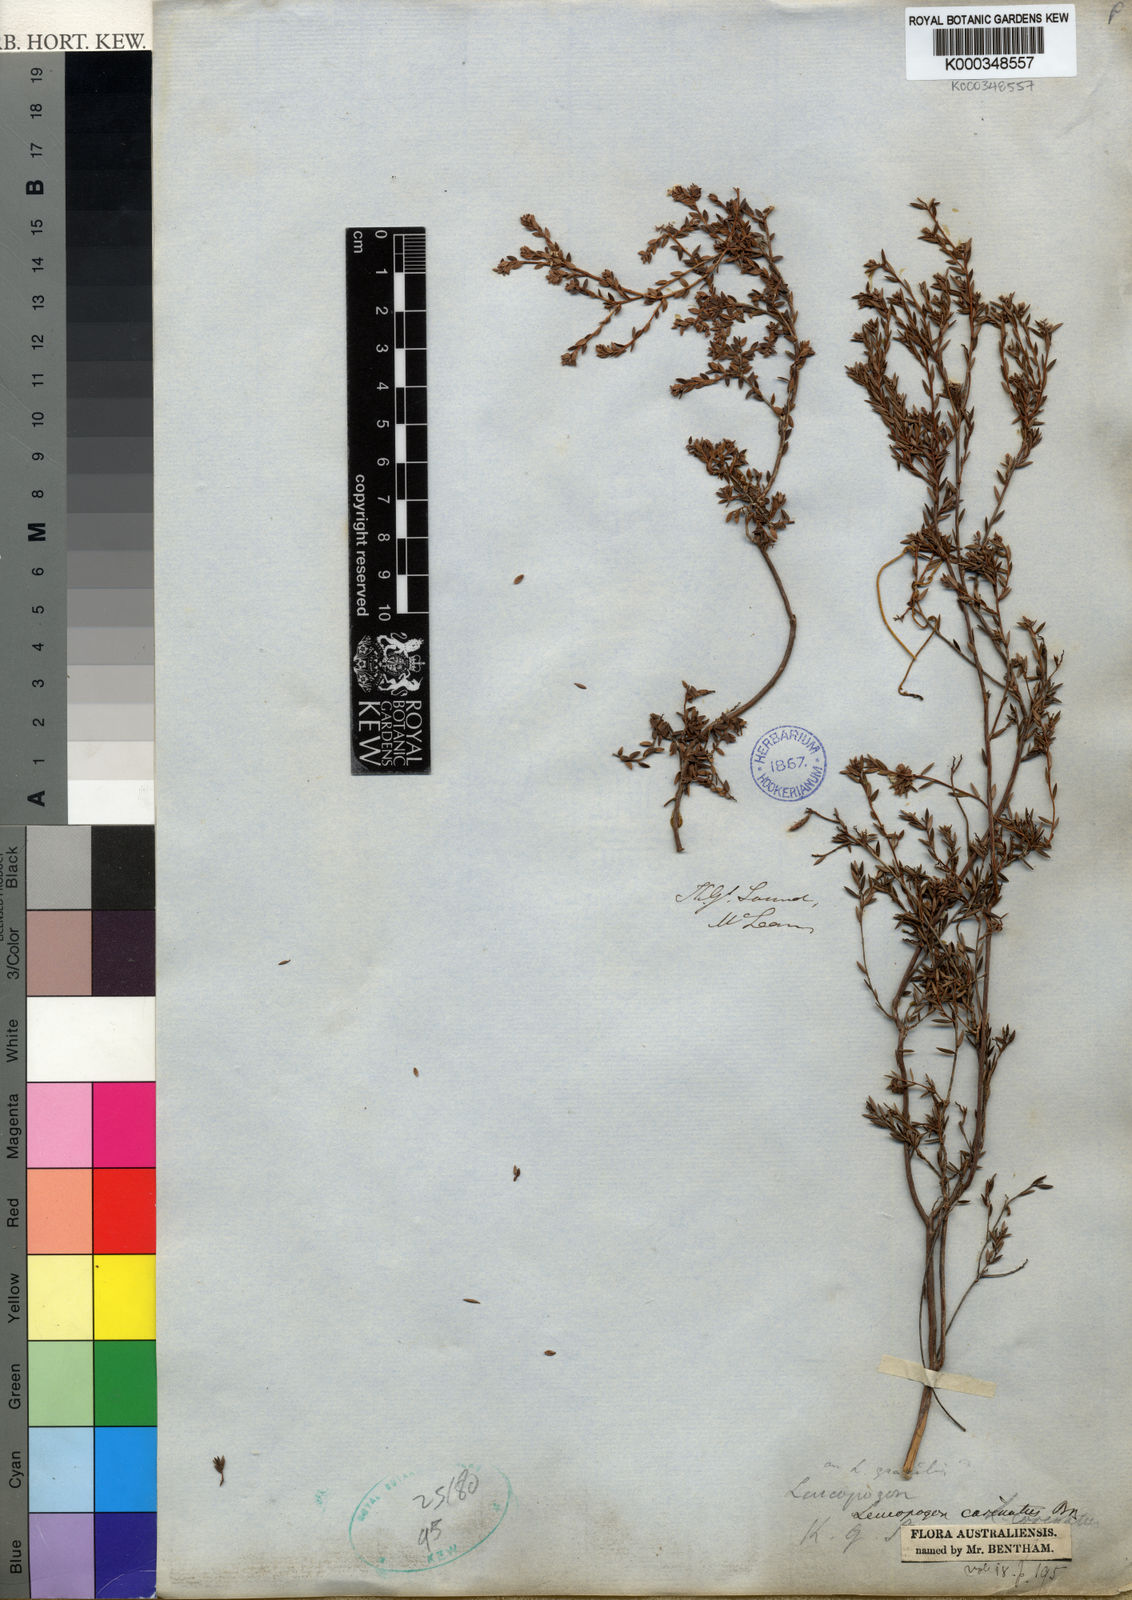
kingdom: Plantae
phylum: Tracheophyta
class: Magnoliopsida
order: Ericales
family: Ericaceae
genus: Leucopogon
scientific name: Leucopogon carinatus
